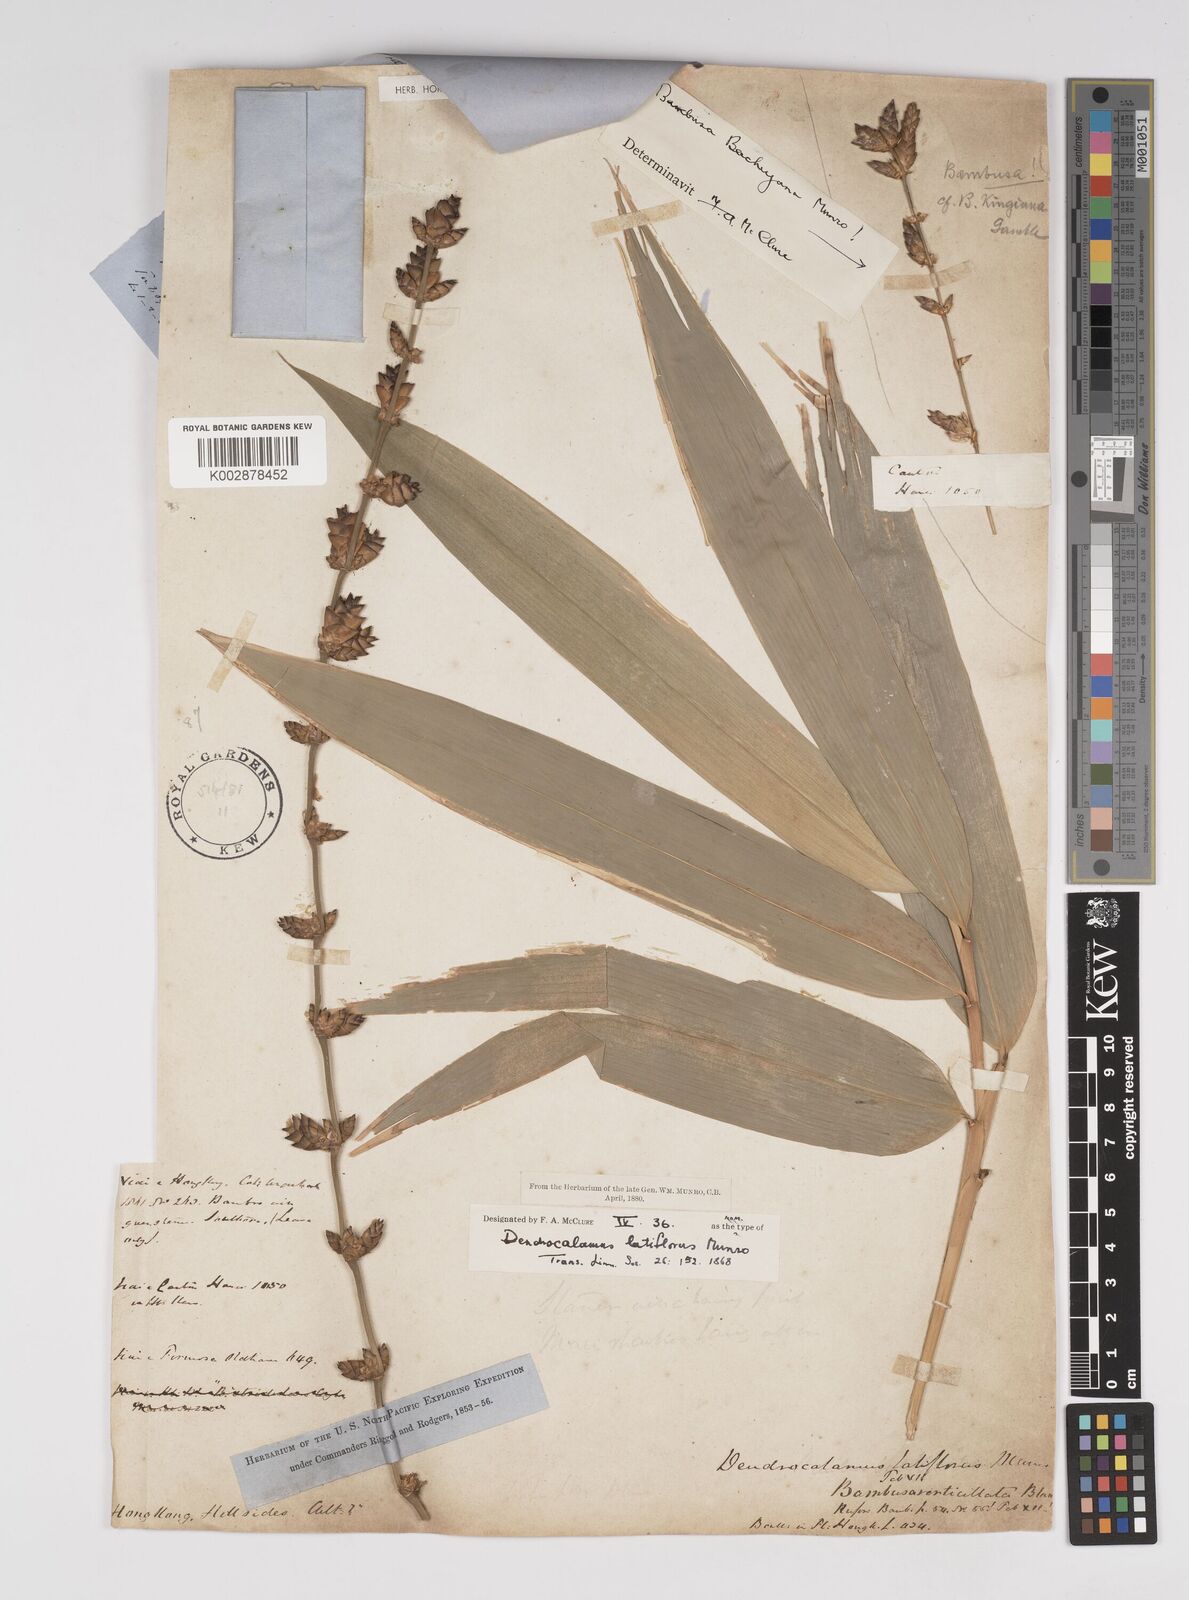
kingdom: Plantae
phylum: Tracheophyta
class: Liliopsida
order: Poales
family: Poaceae
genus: Dendrocalamus
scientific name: Dendrocalamus latiflorus
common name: Giant bamboo
